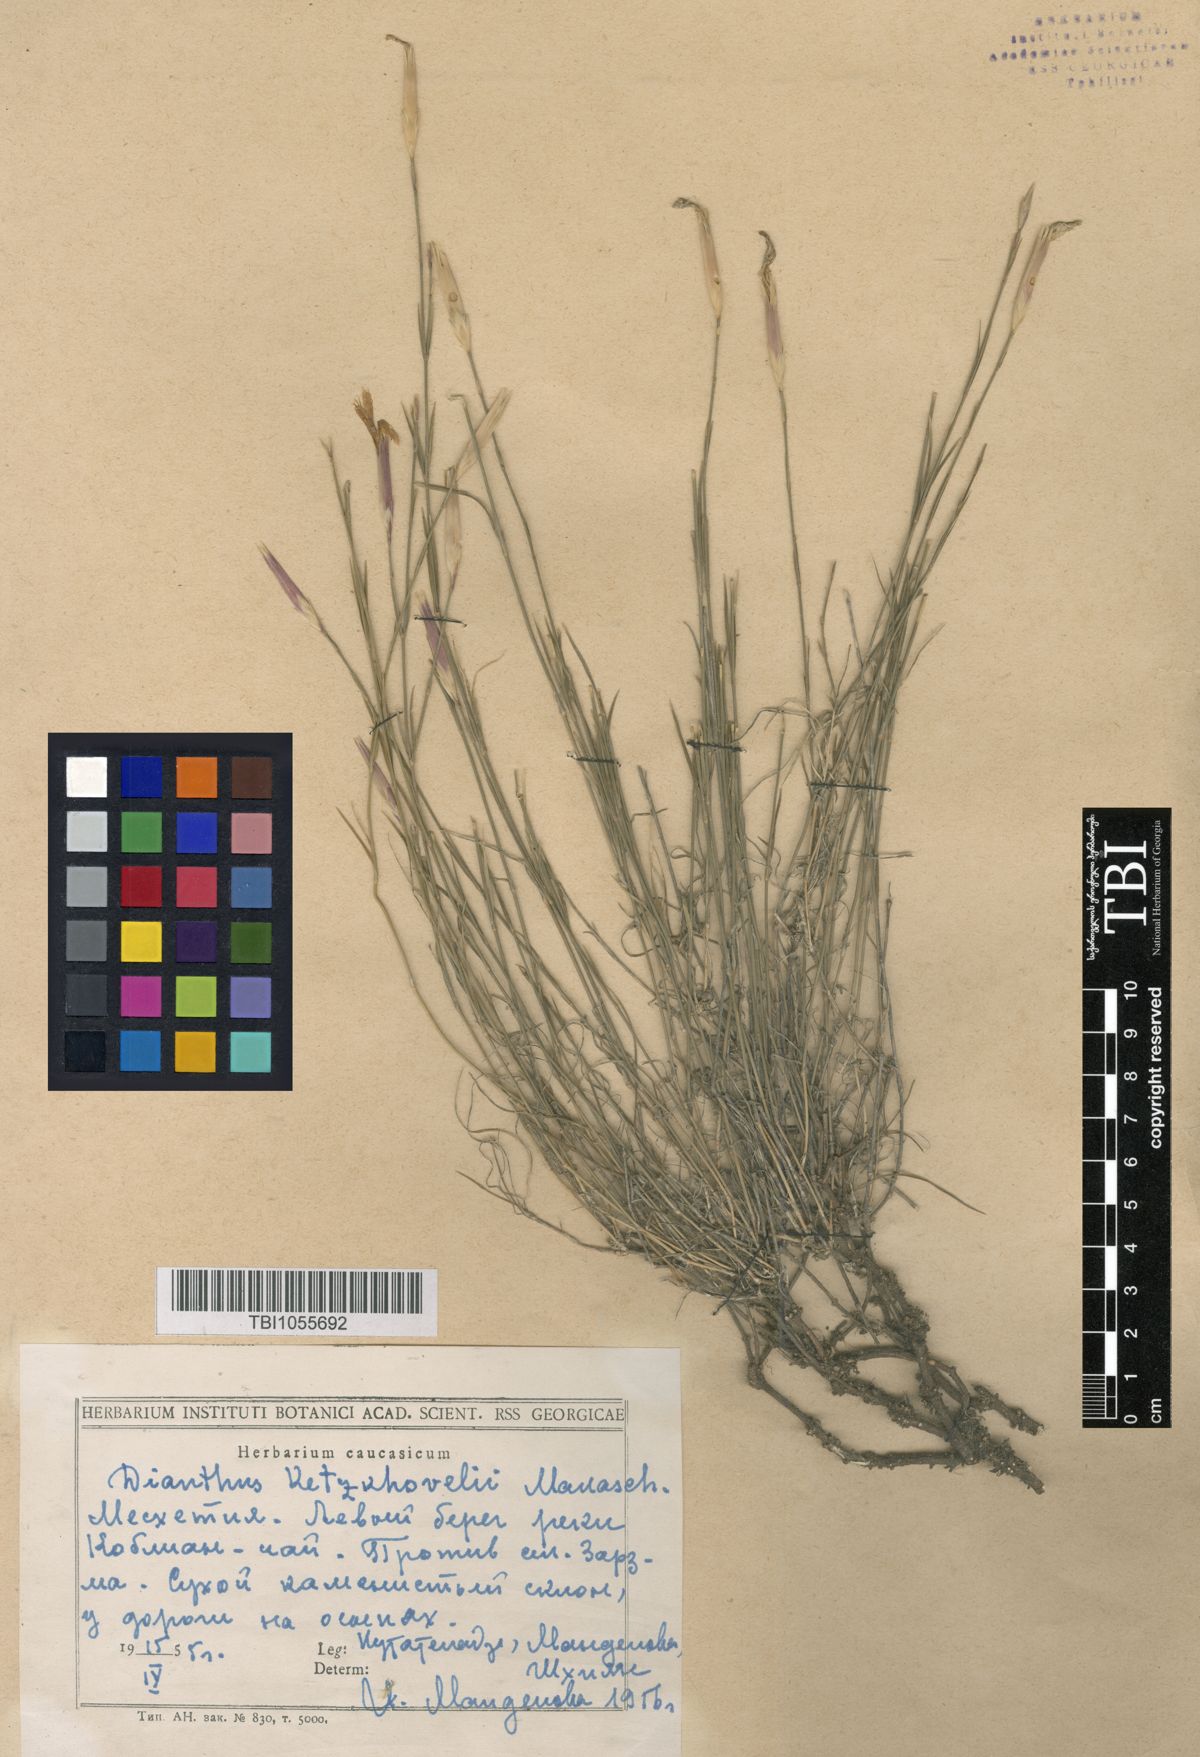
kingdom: Plantae
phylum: Tracheophyta
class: Magnoliopsida
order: Caryophyllales
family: Caryophyllaceae
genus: Dianthus
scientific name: Dianthus orientalis
